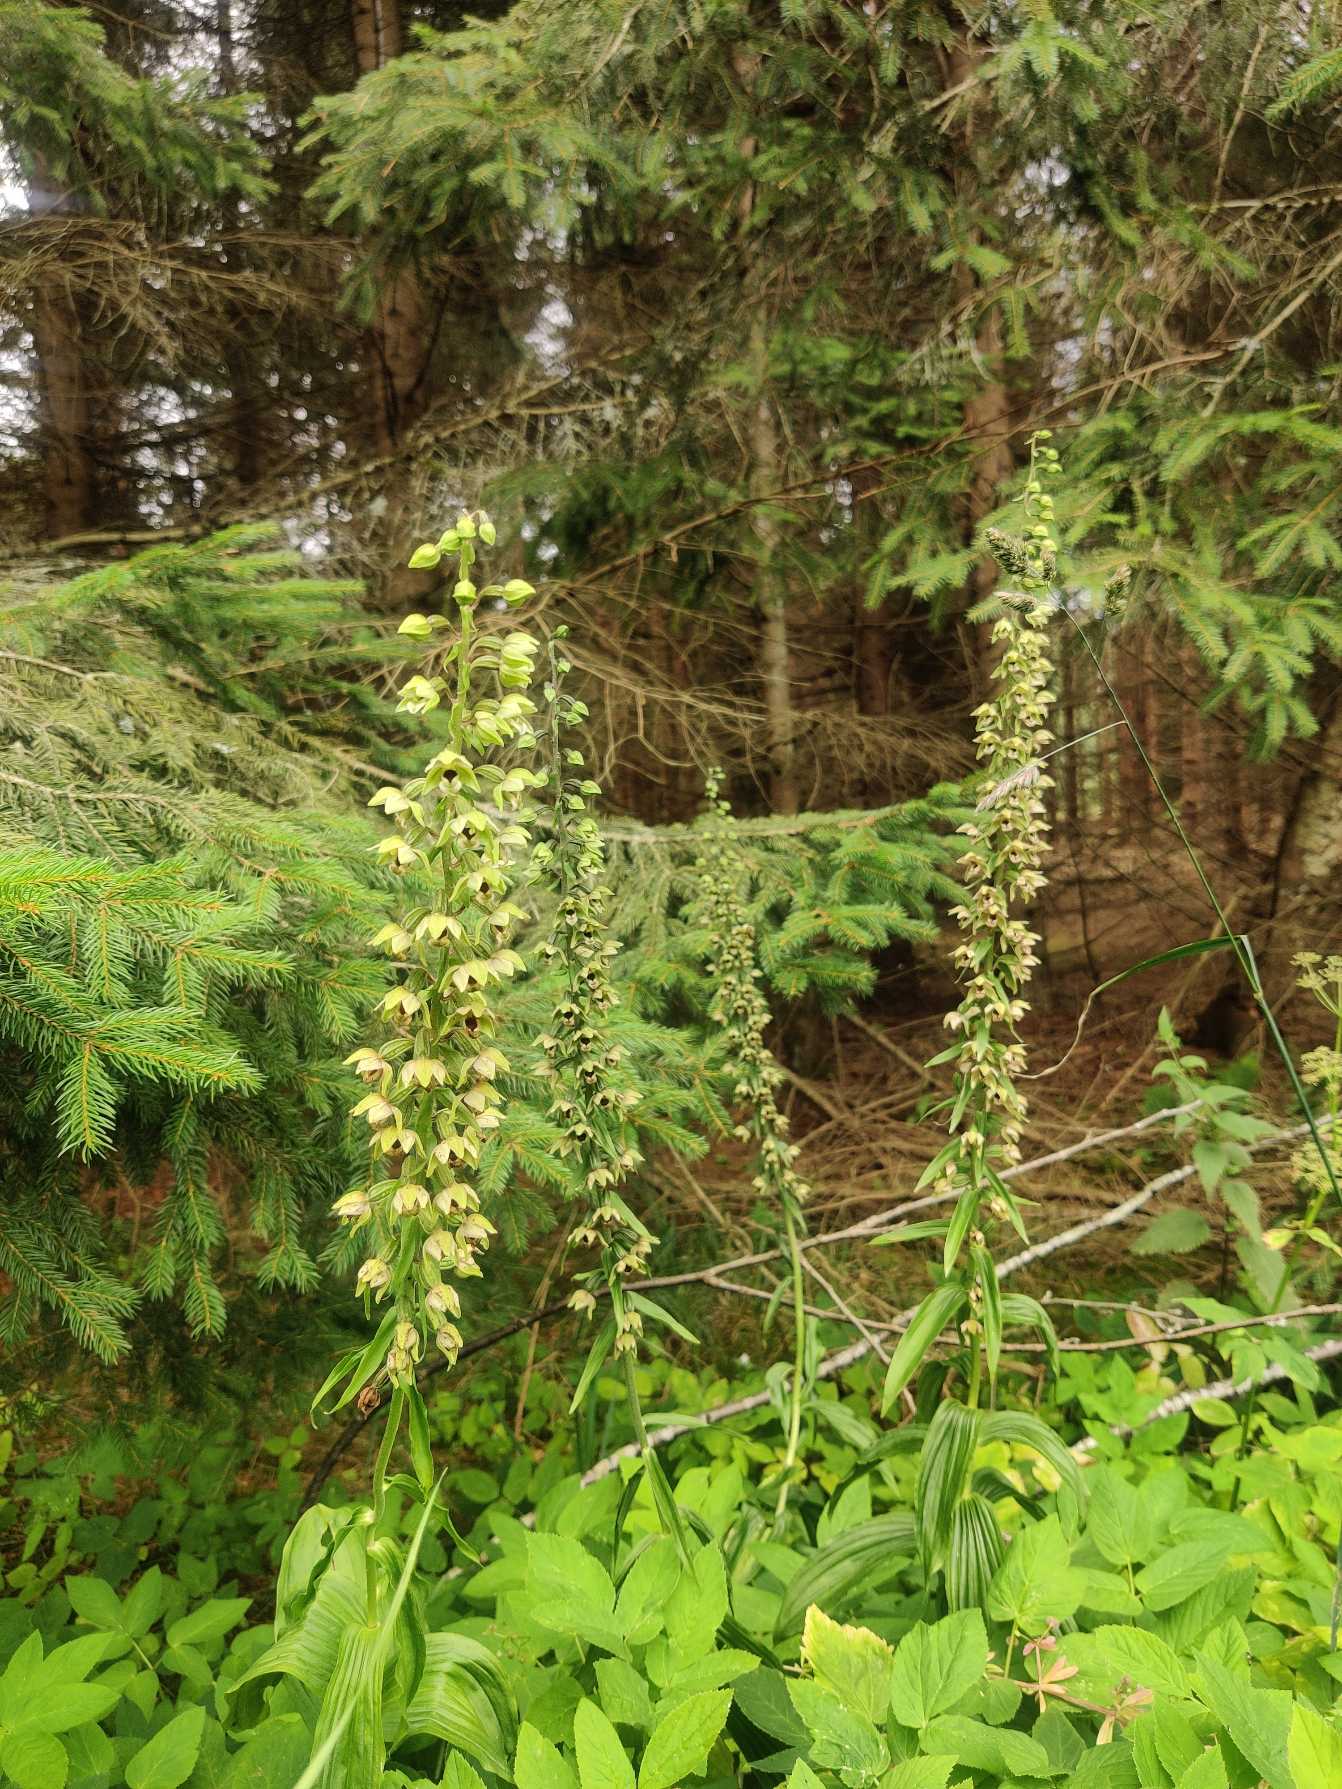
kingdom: Plantae
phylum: Tracheophyta
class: Liliopsida
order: Asparagales
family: Orchidaceae
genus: Epipactis
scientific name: Epipactis helleborine
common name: Skov-hullæbe
